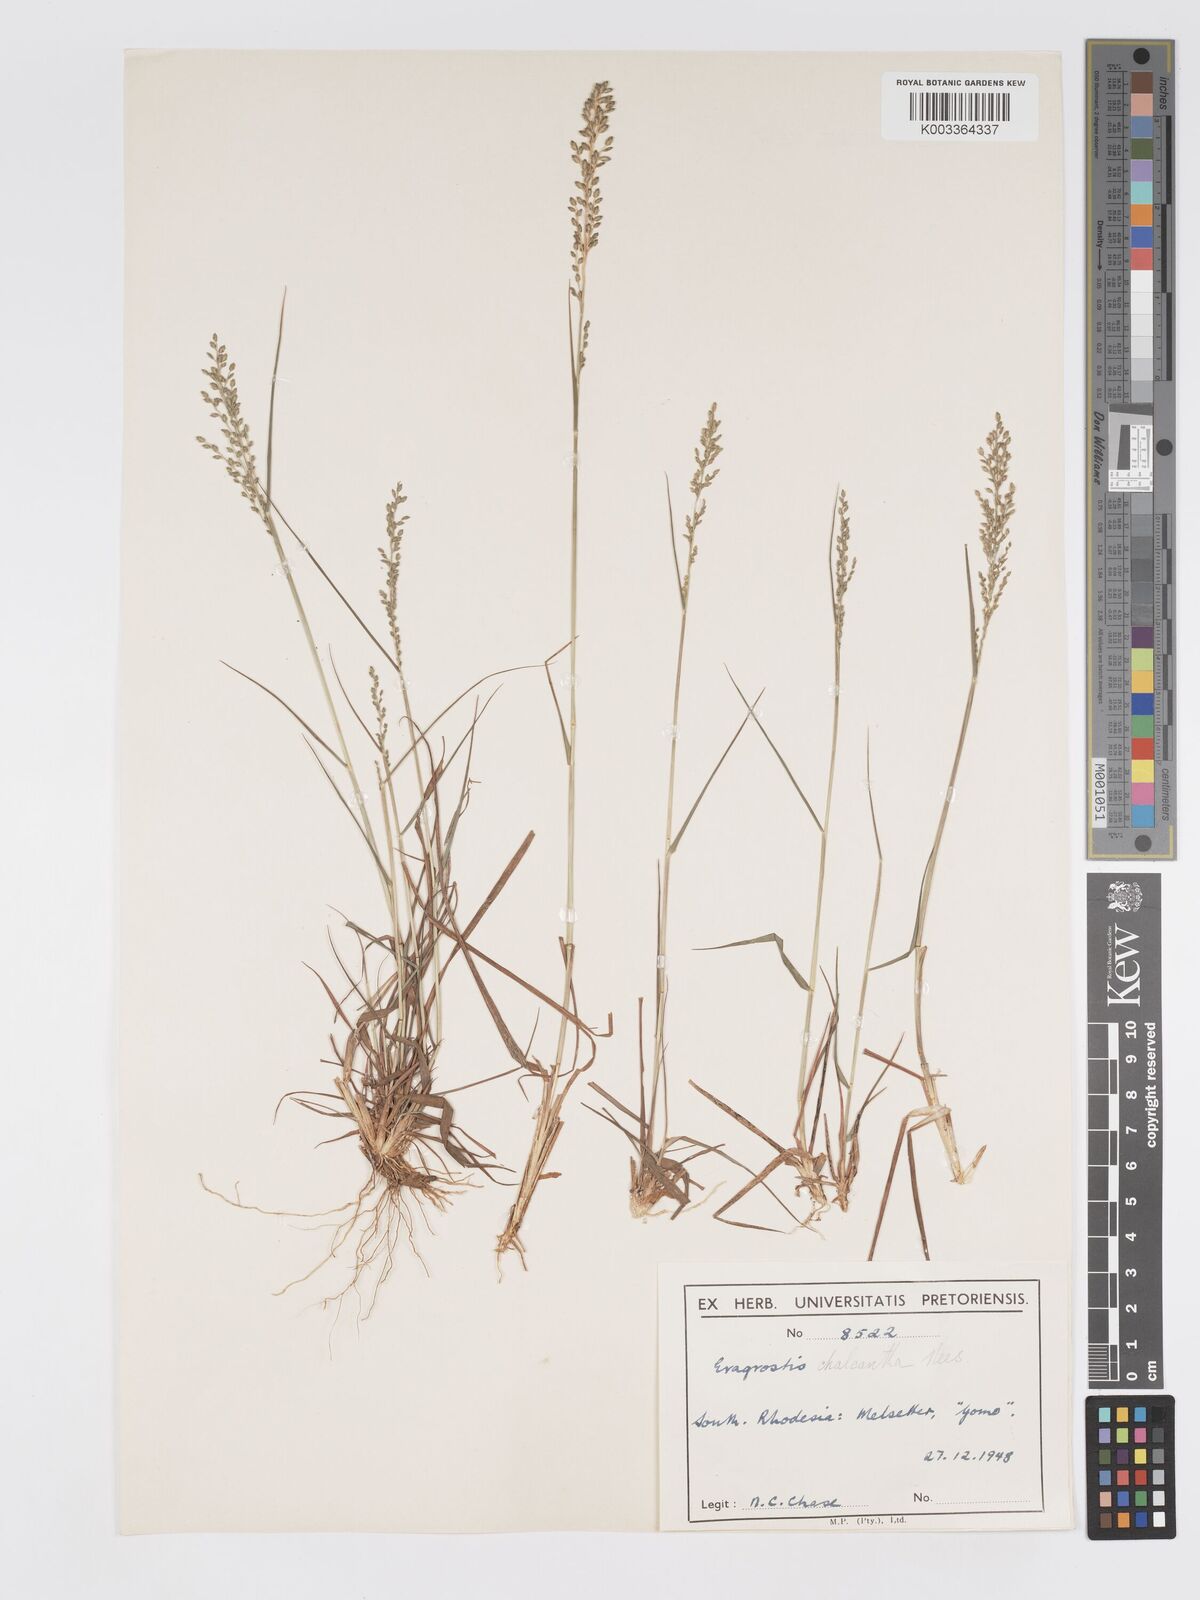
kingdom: Plantae
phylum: Tracheophyta
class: Liliopsida
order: Poales
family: Poaceae
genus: Eragrostis
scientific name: Eragrostis racemosa
